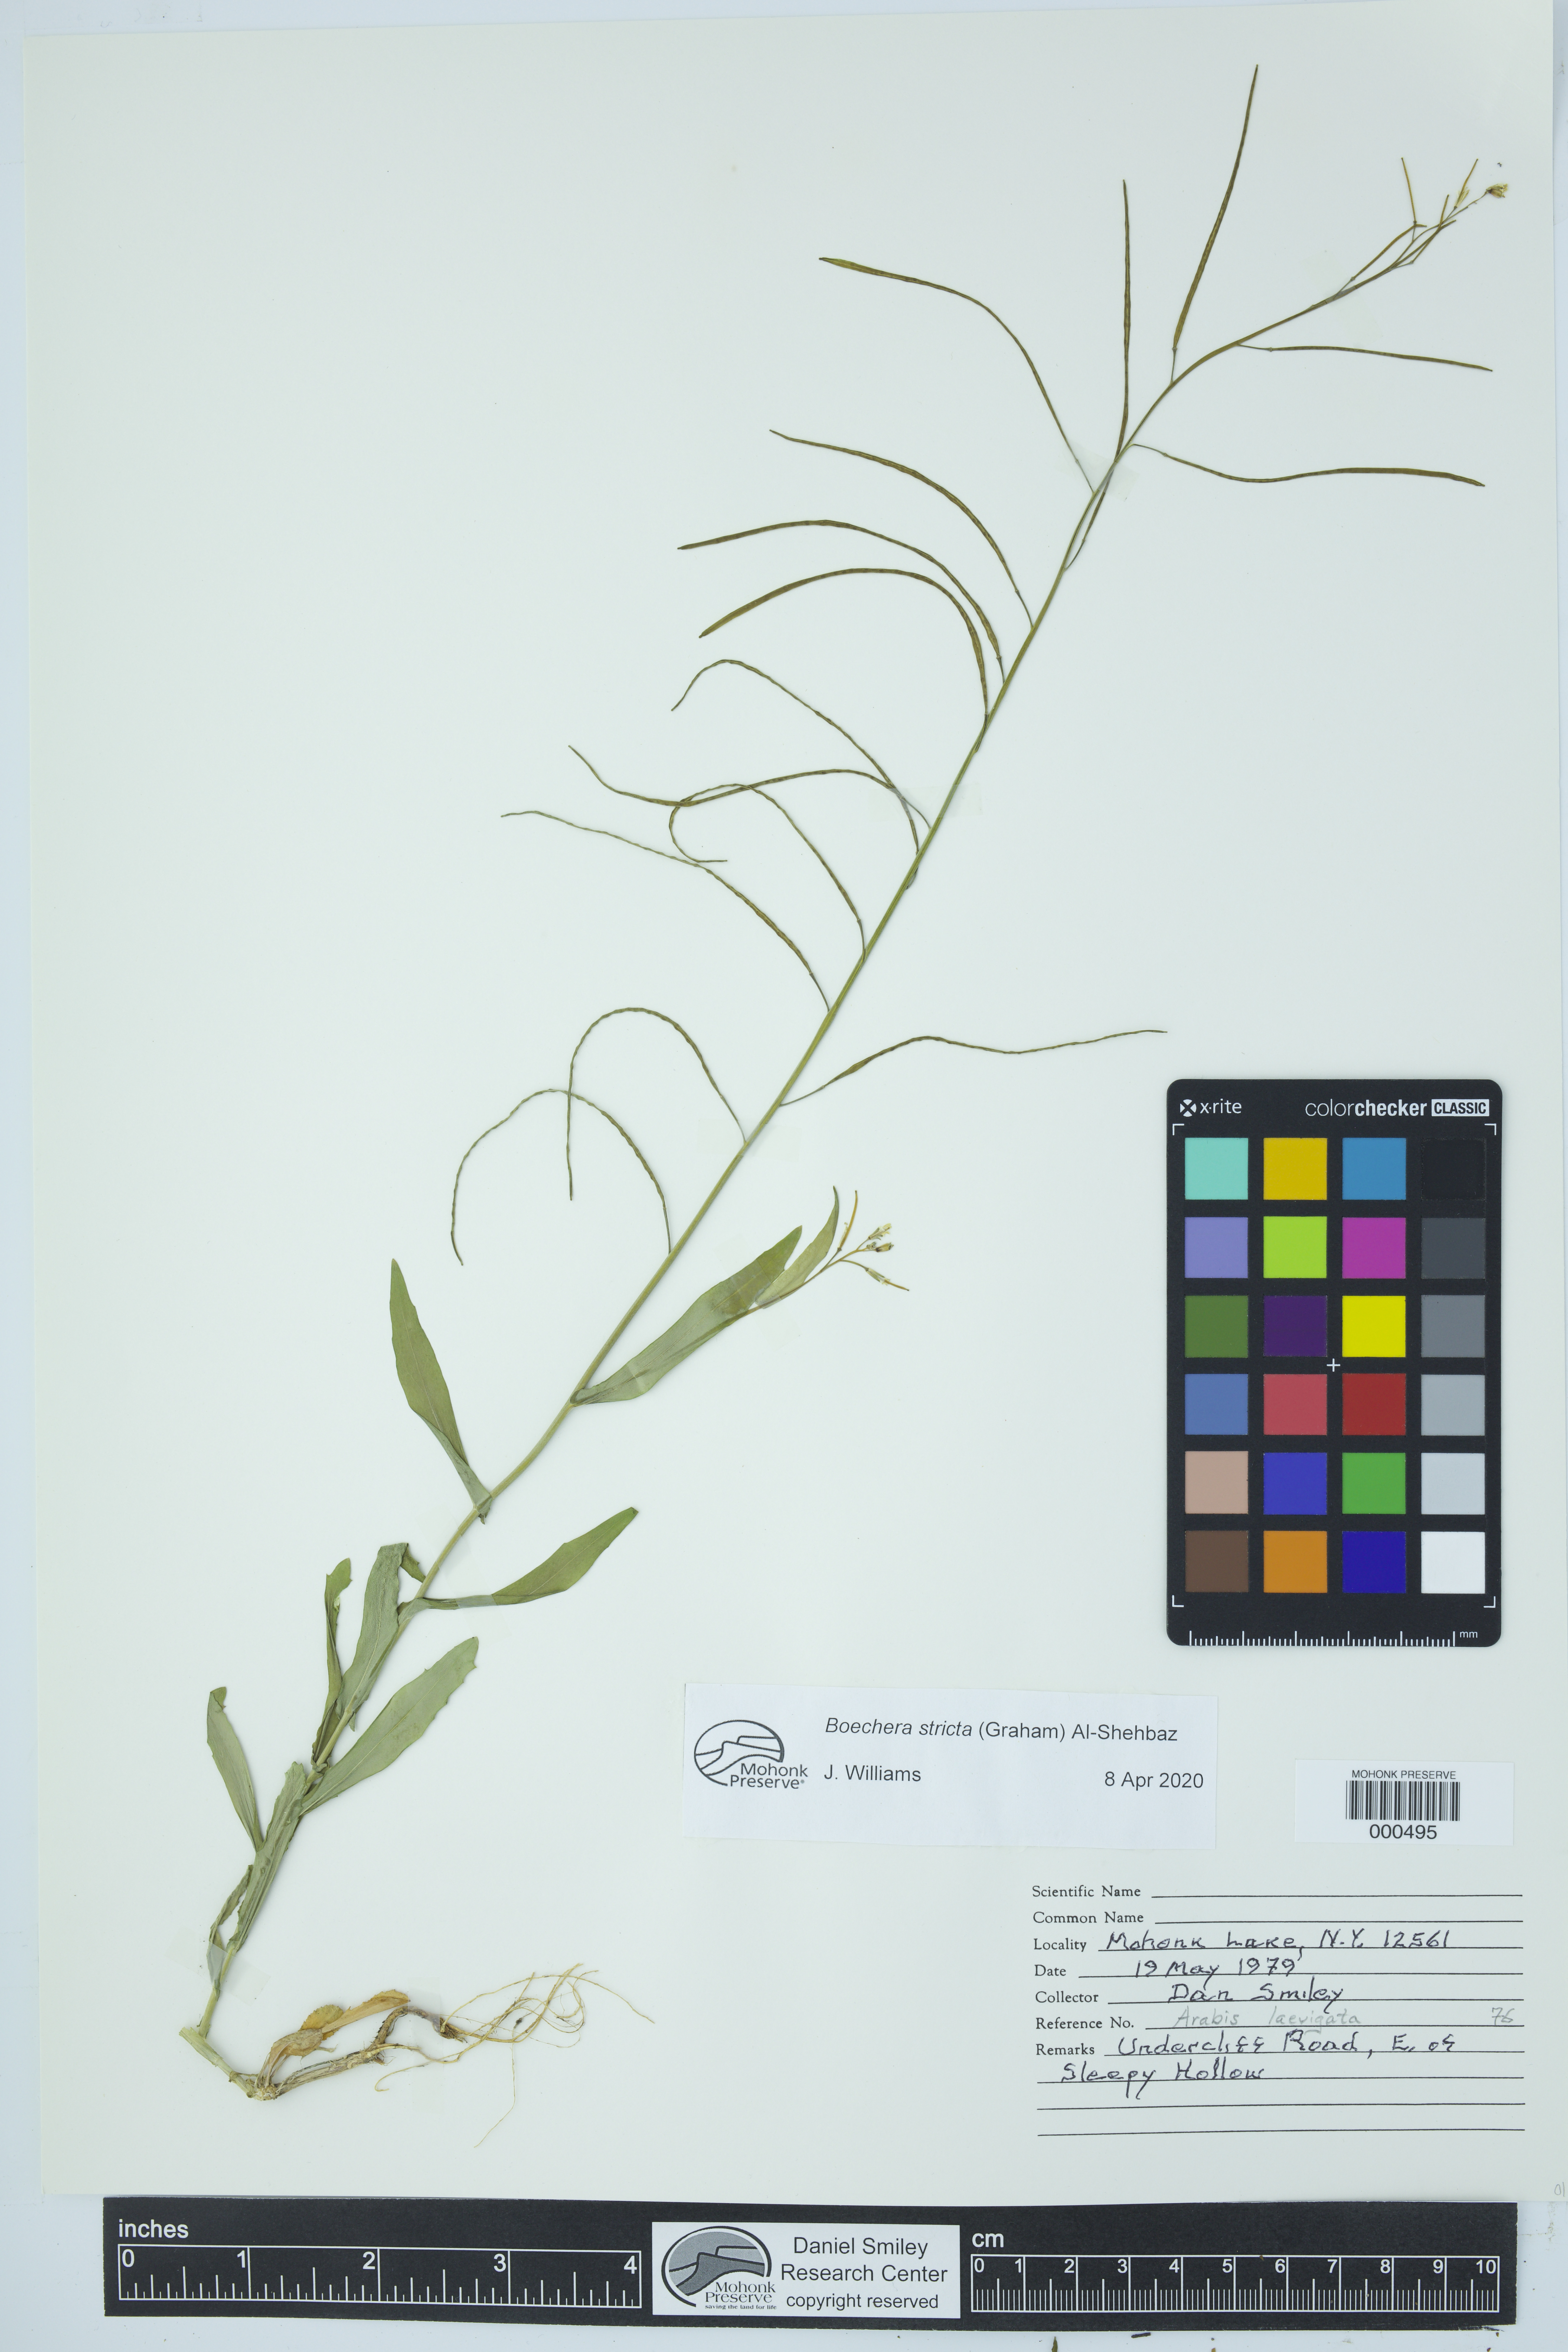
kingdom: Plantae
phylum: Tracheophyta
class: Magnoliopsida
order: Brassicales
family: Brassicaceae
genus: Boechera
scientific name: Boechera stricta
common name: Canadian rockcress
